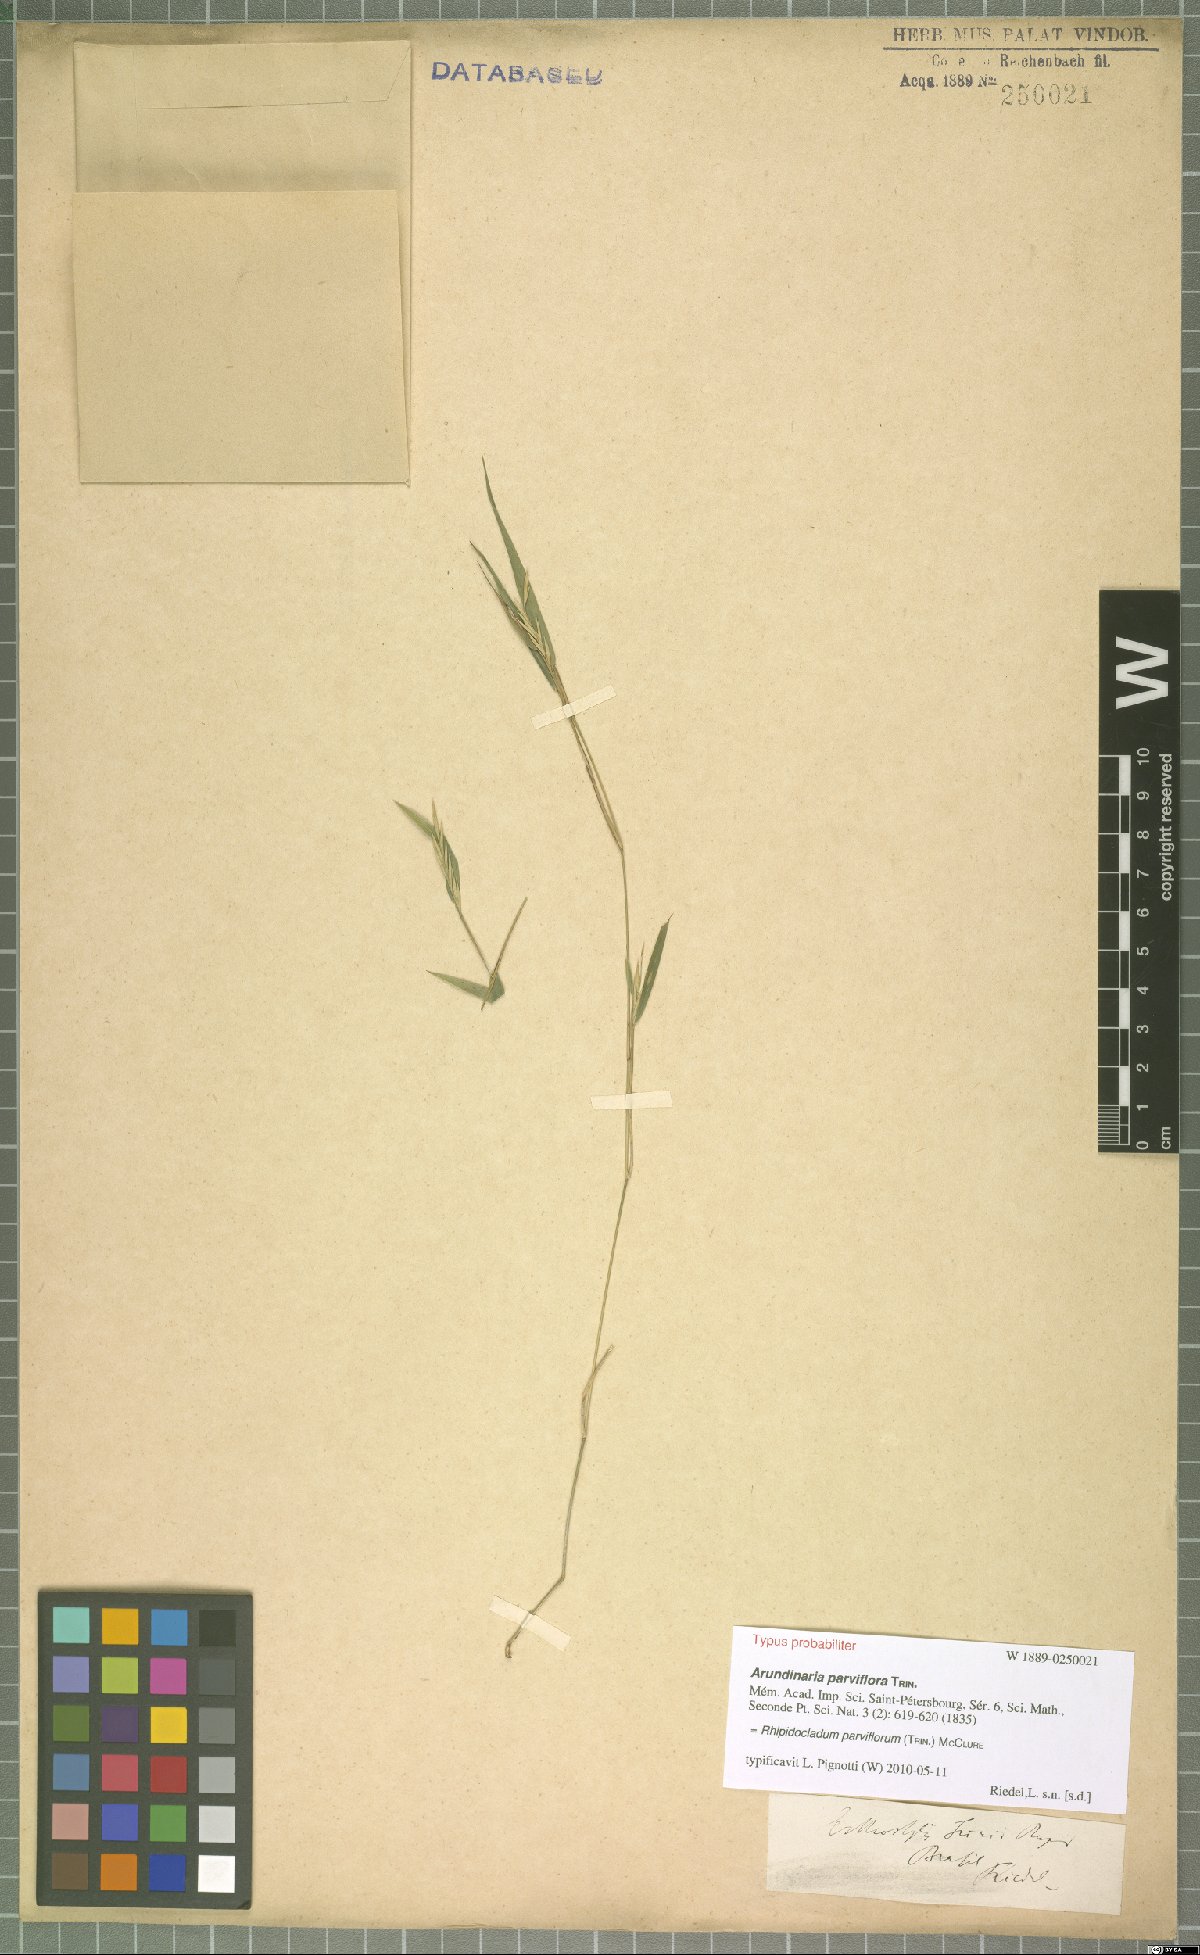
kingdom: Plantae
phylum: Tracheophyta
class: Liliopsida
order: Poales
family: Poaceae
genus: Rhipidocladum
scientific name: Rhipidocladum parviflorum
